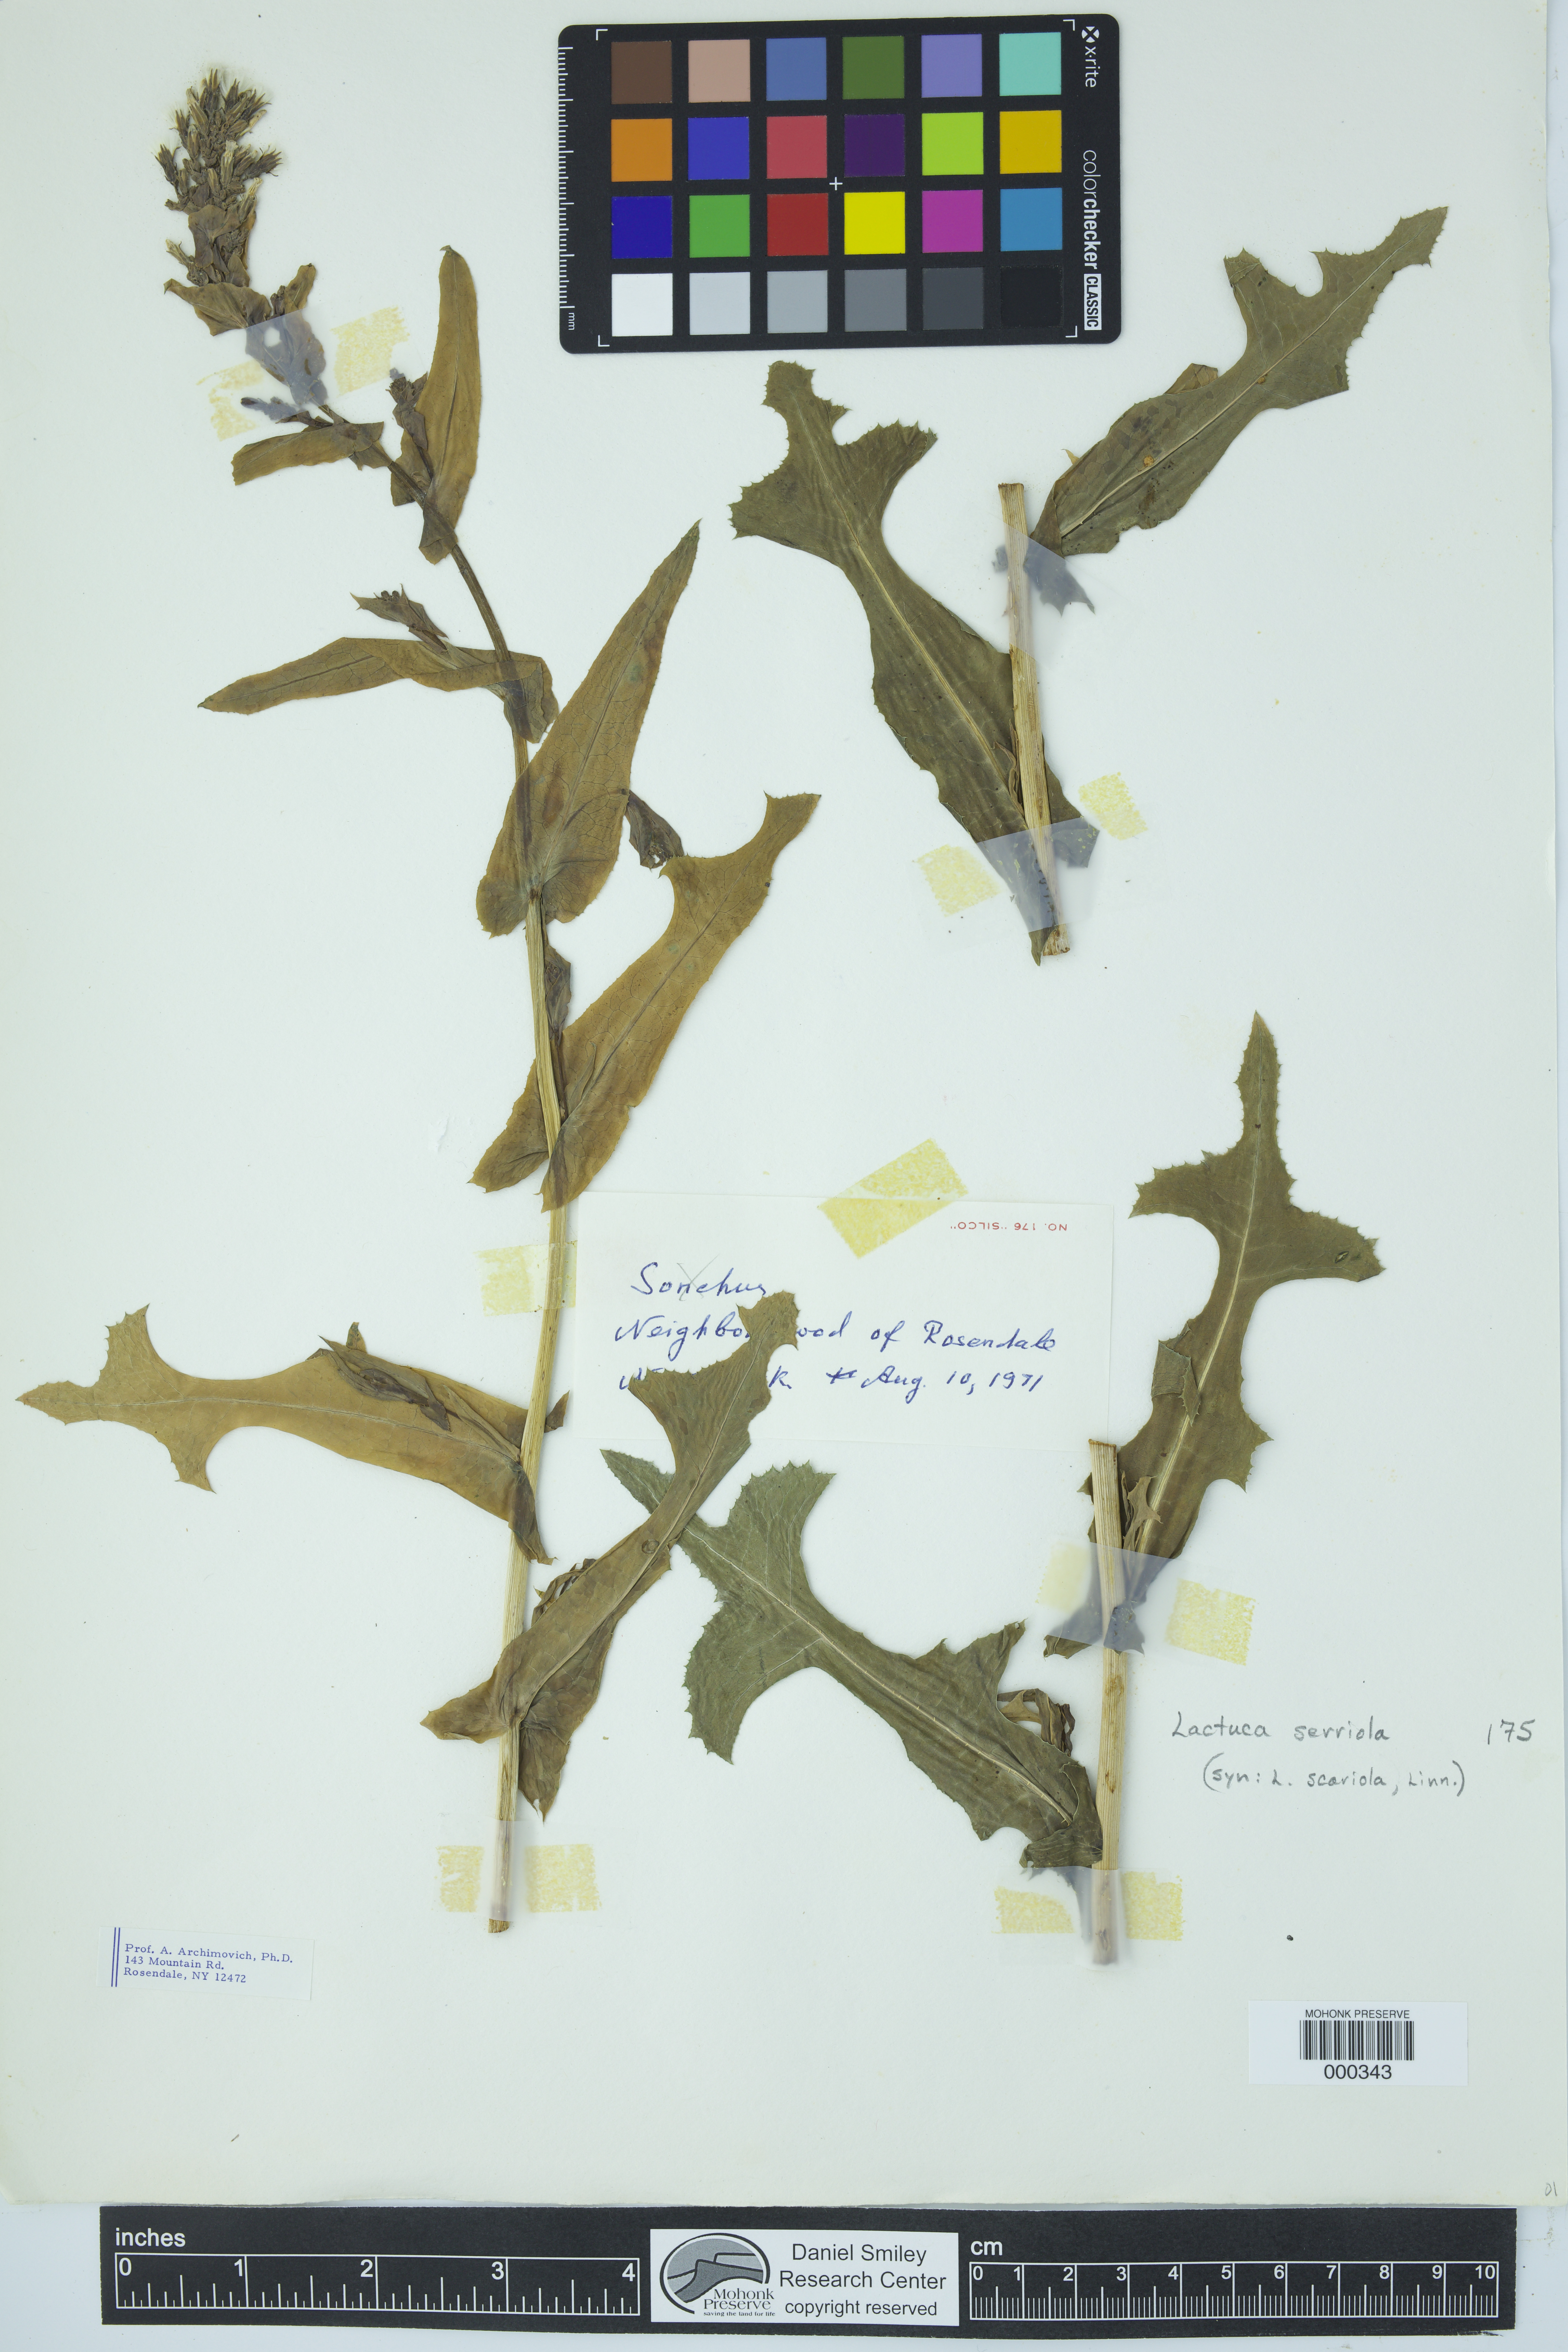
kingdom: Plantae
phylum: Tracheophyta
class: Magnoliopsida
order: Asterales
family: Asteraceae
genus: Lactuca
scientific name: Lactuca serriola
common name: Prickly lettuce
